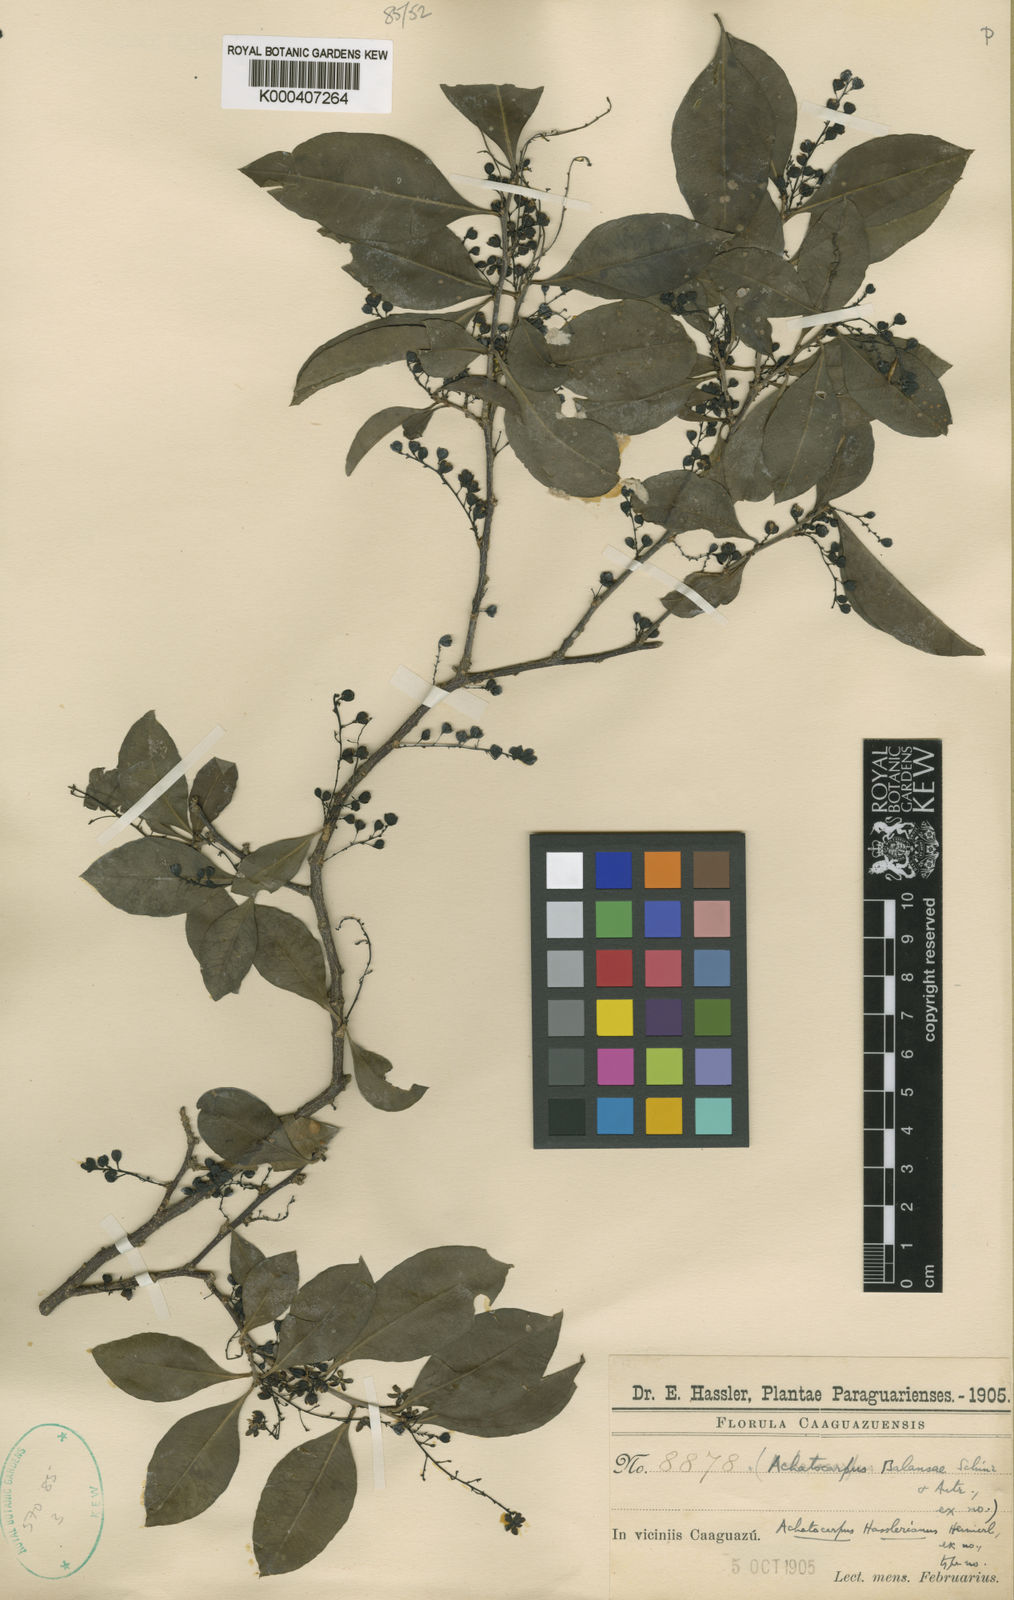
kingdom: Plantae
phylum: Tracheophyta
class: Magnoliopsida
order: Caryophyllales
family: Achatocarpaceae
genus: Achatocarpus
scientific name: Achatocarpus balansae
